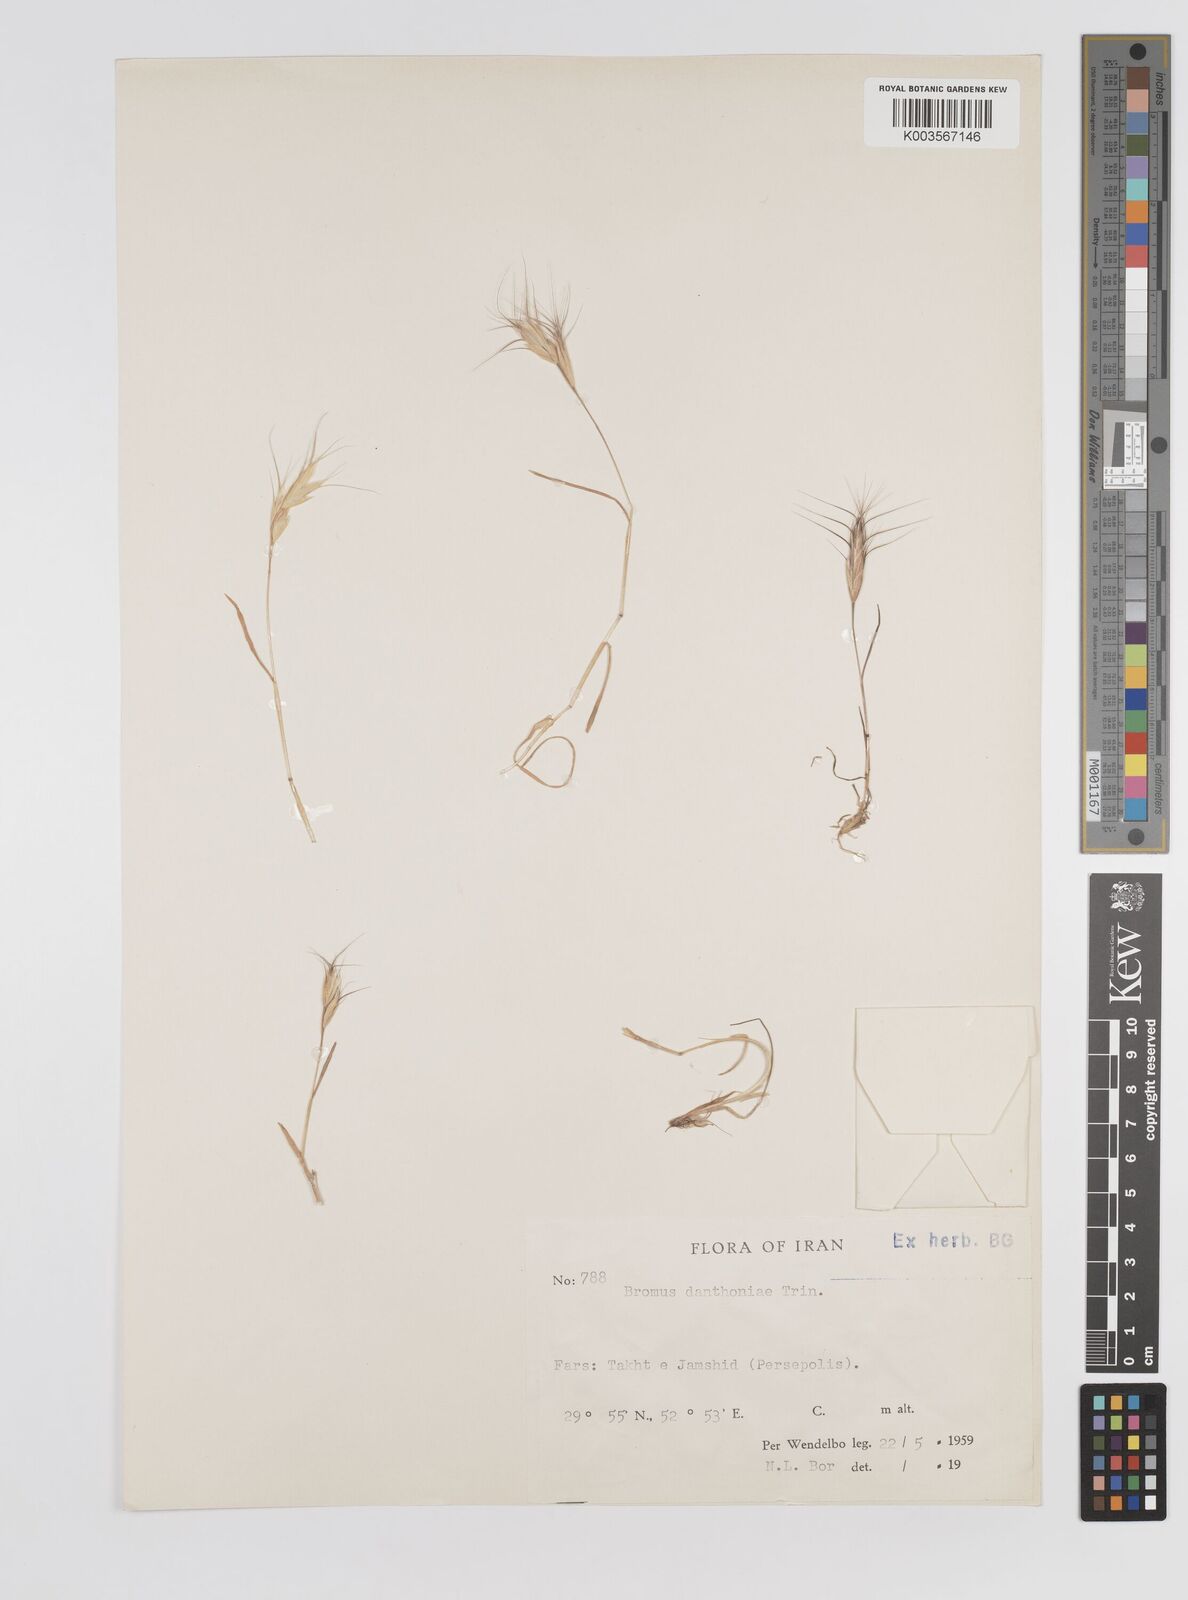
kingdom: Plantae
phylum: Tracheophyta
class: Liliopsida
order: Poales
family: Poaceae
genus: Bromus
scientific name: Bromus danthoniae
